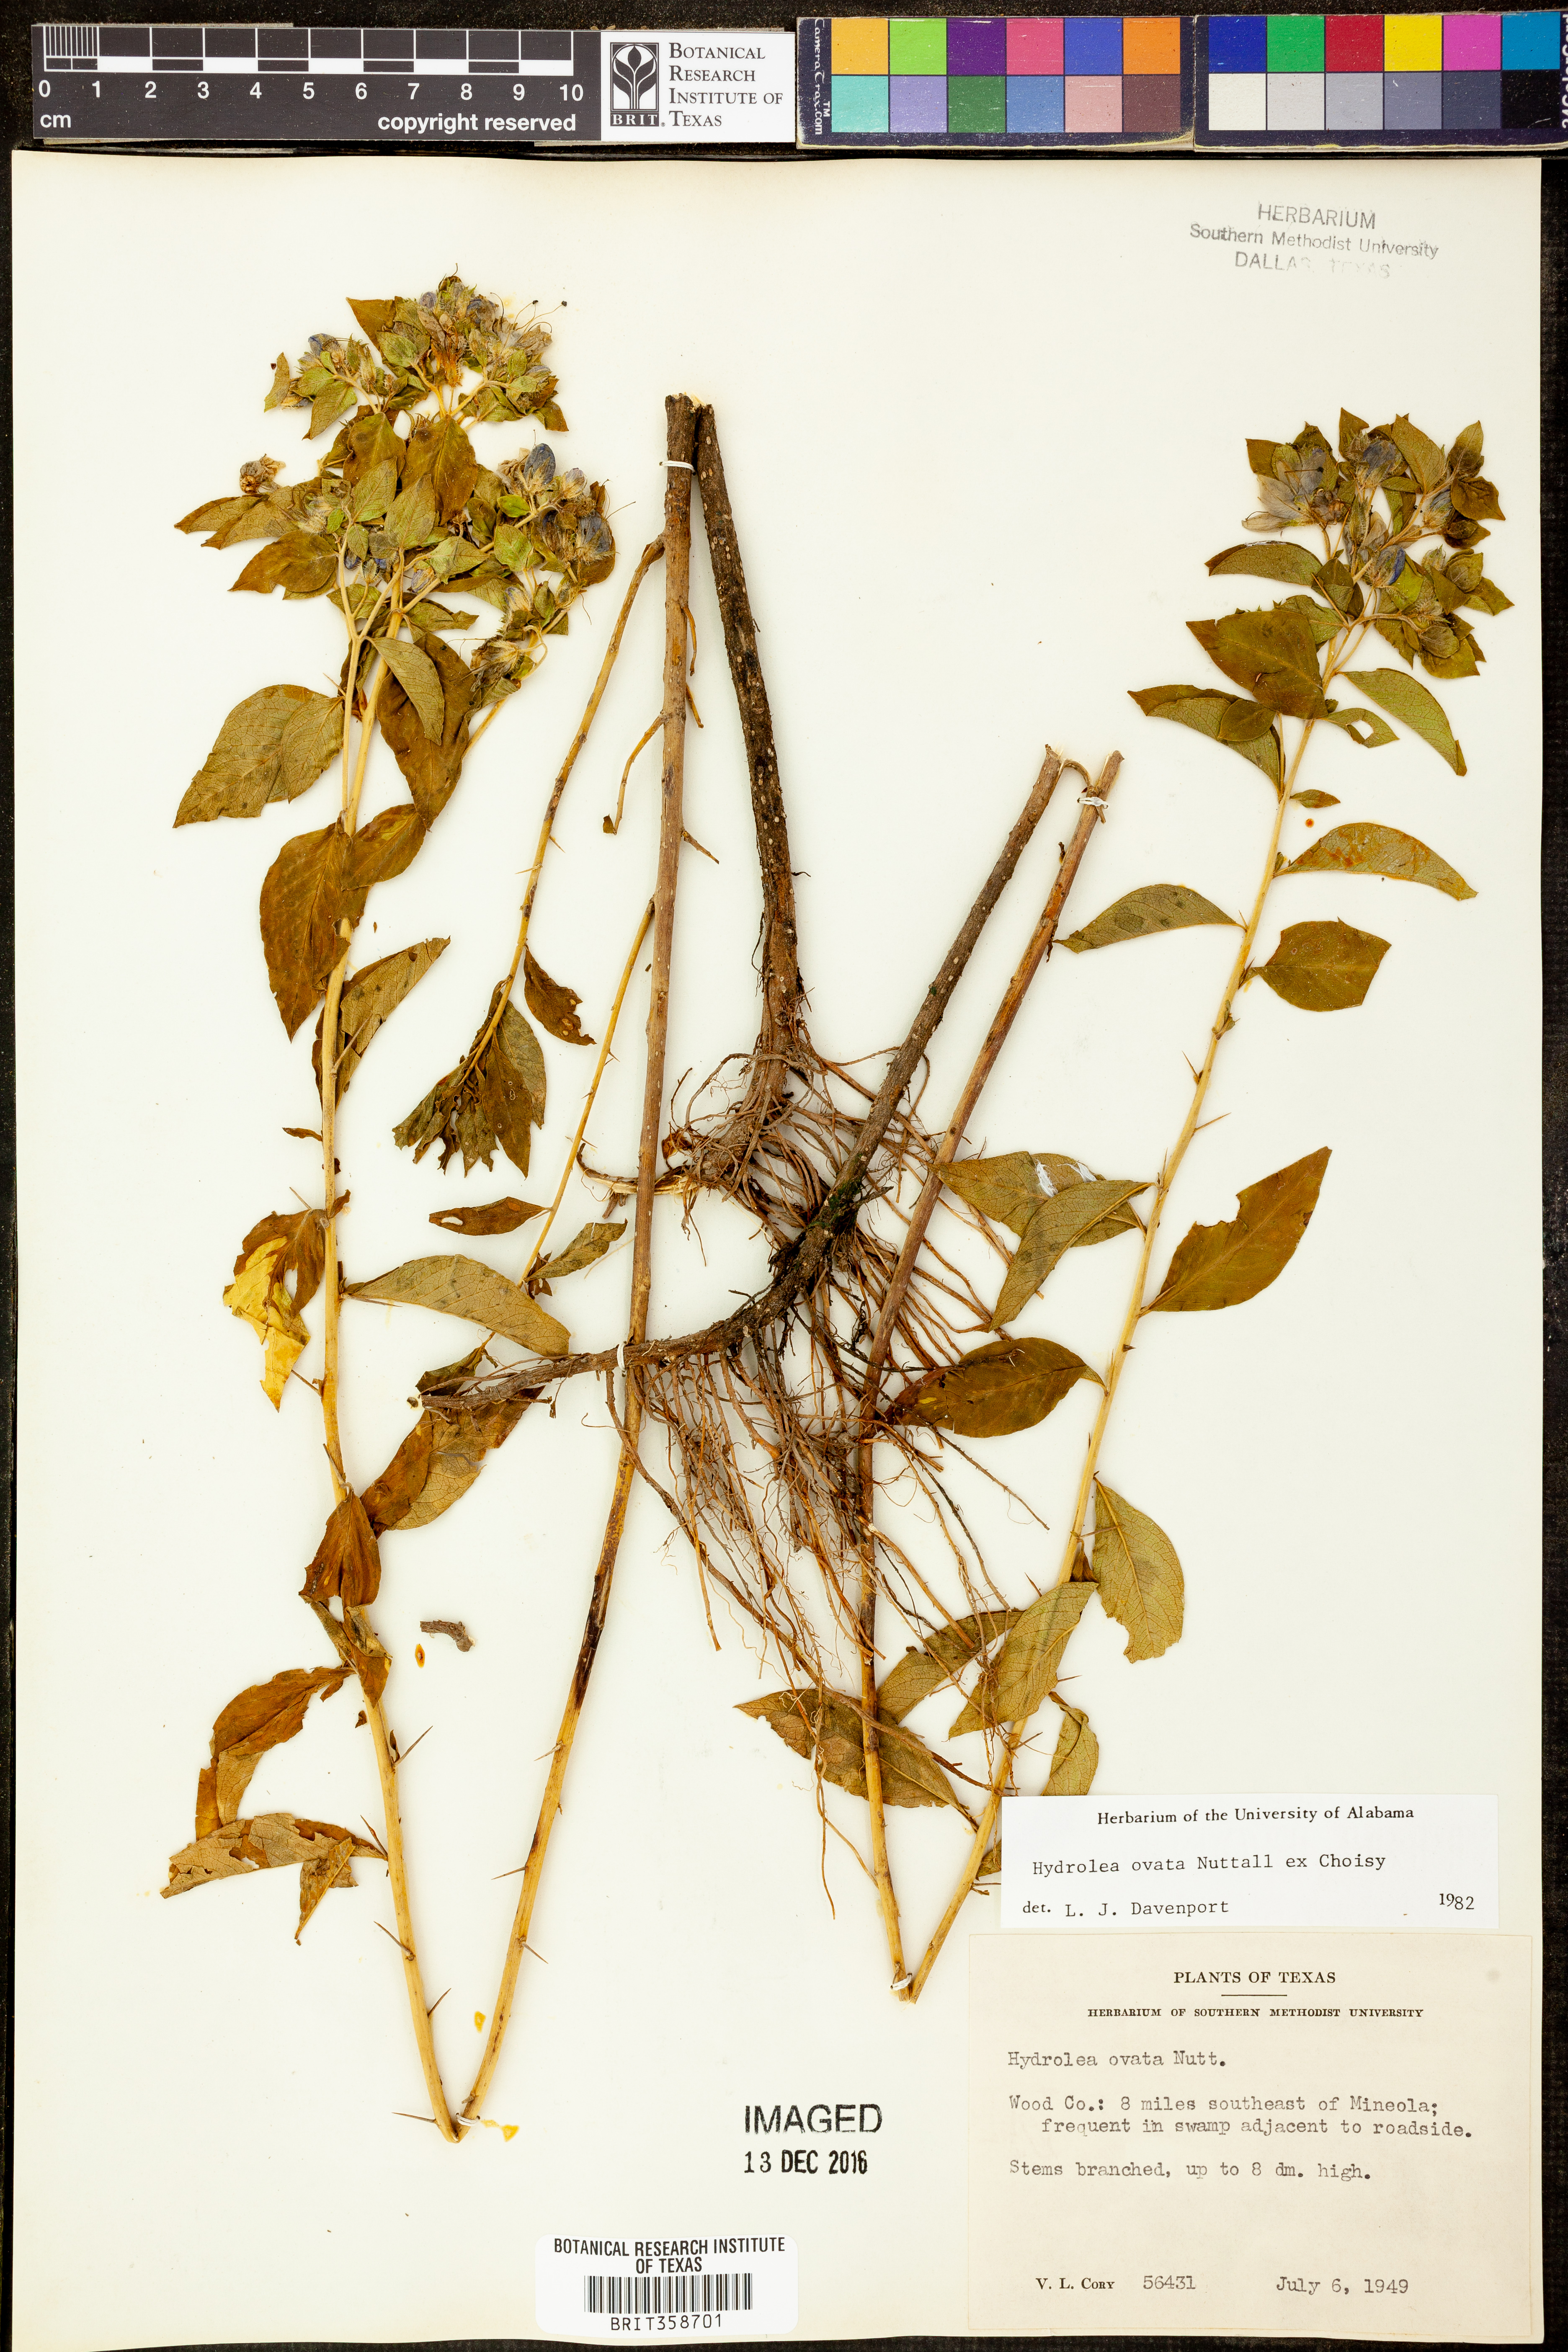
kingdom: Plantae
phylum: Tracheophyta
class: Magnoliopsida
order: Solanales
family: Hydroleaceae
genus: Hydrolea
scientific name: Hydrolea ovata
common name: Ovate false fiddleleaf
